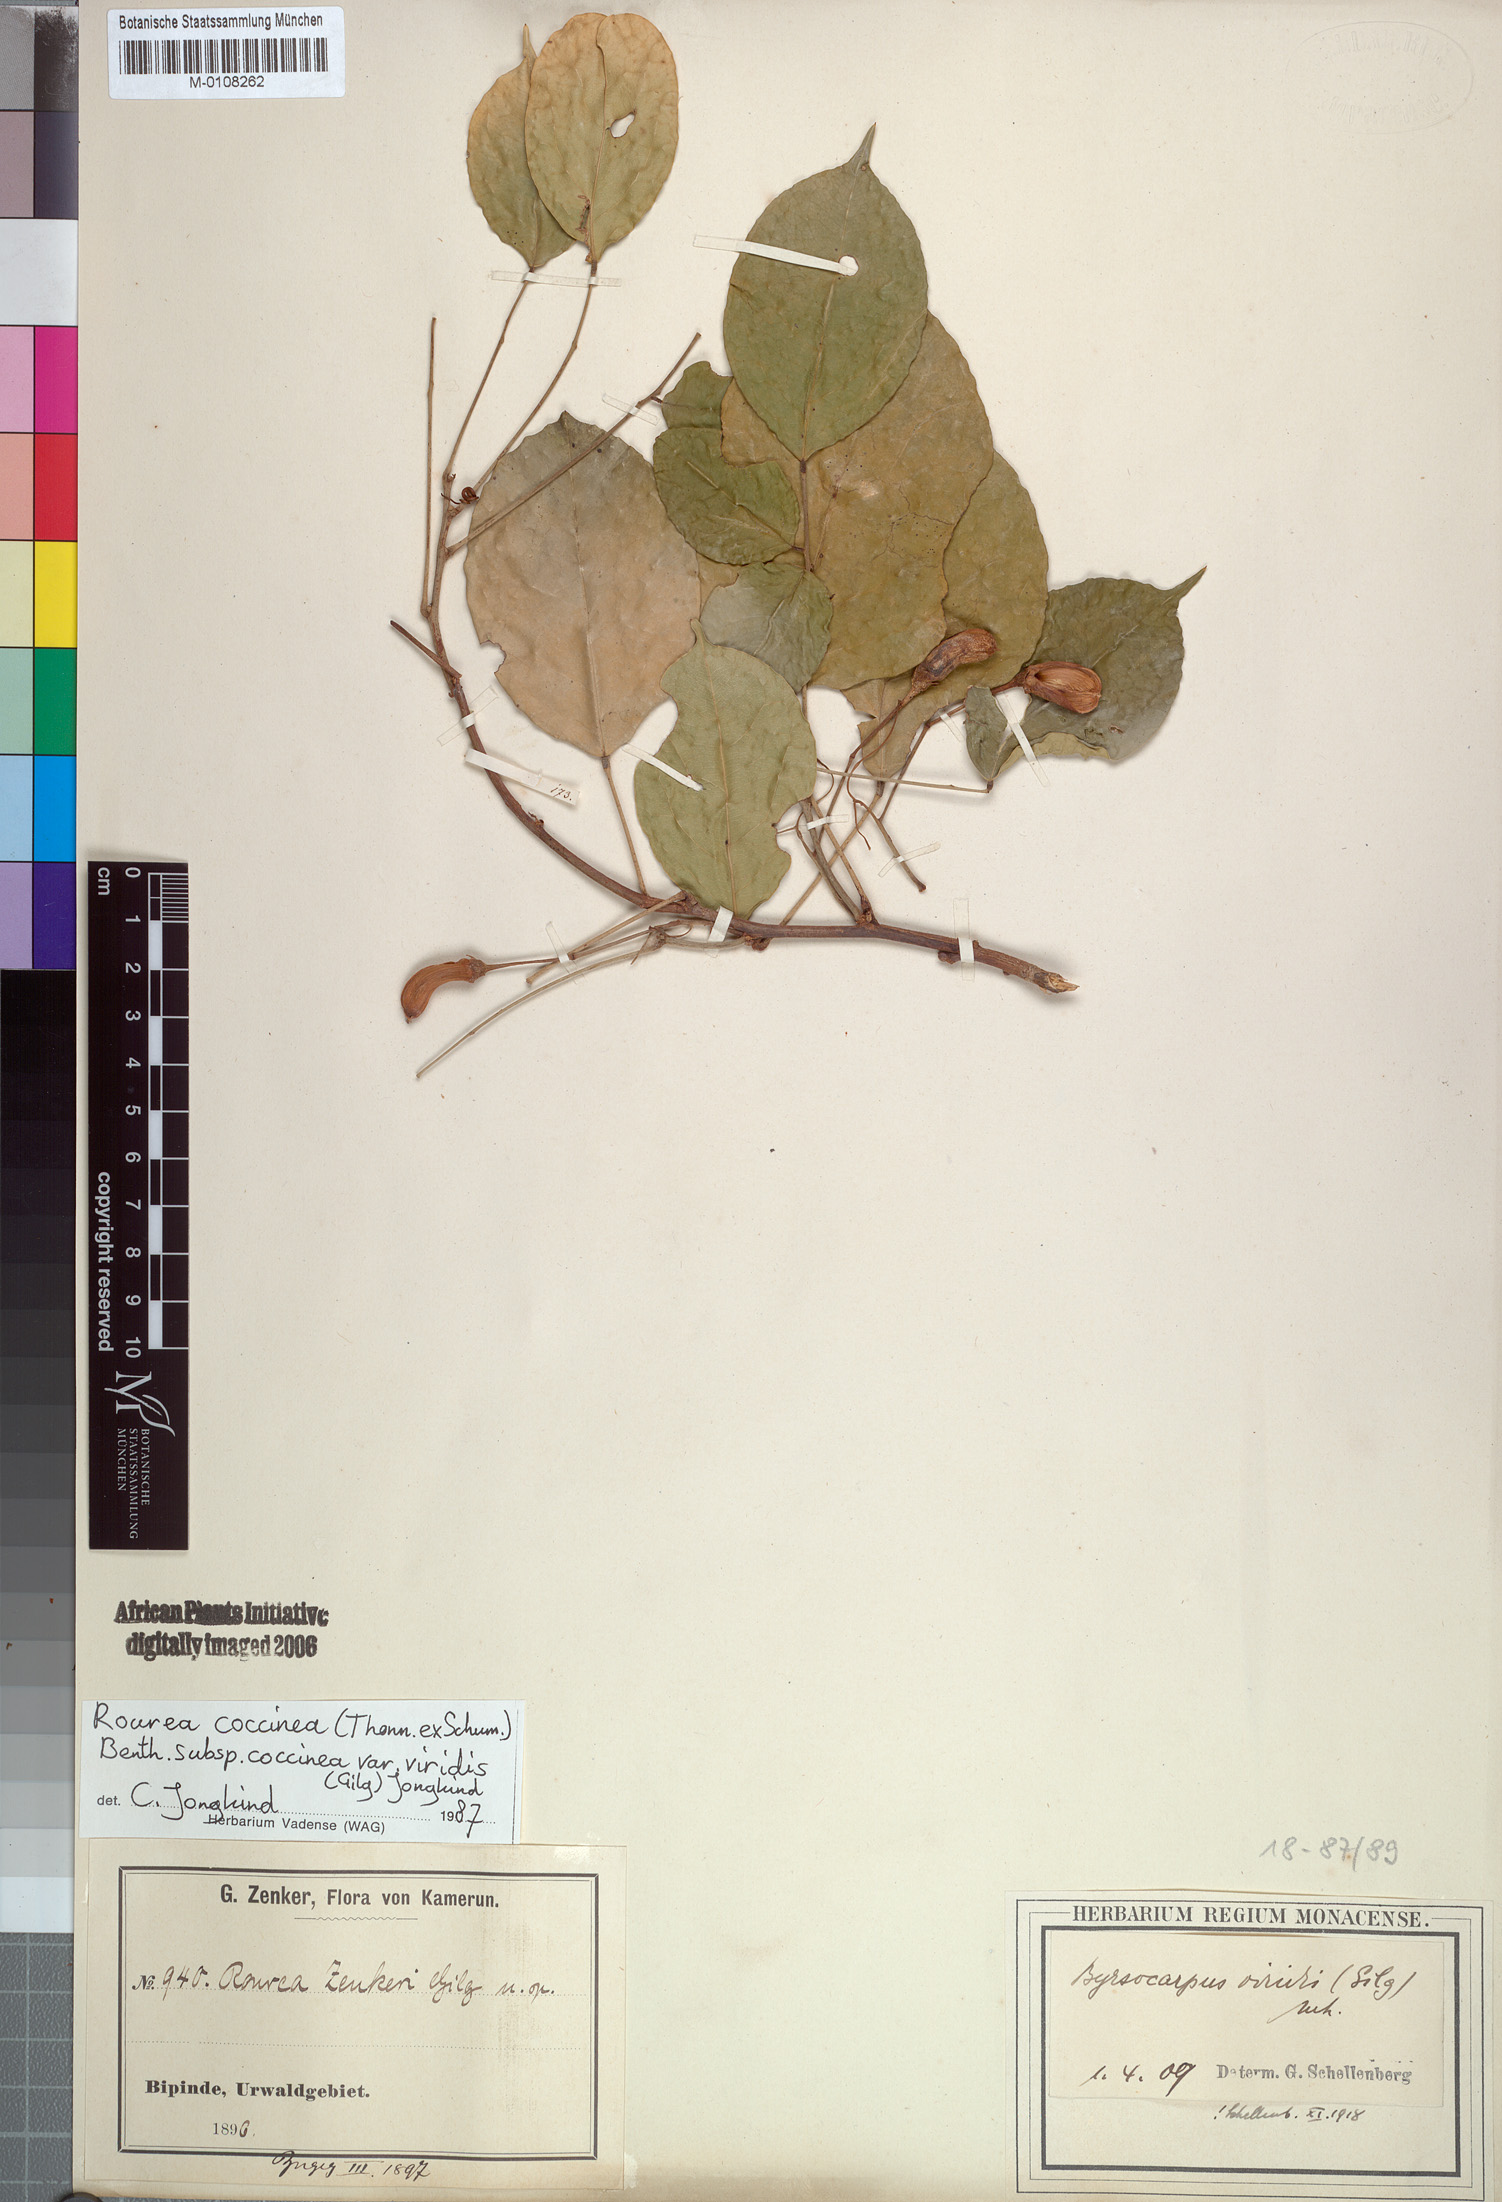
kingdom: Plantae
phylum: Tracheophyta
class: Magnoliopsida
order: Oxalidales
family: Connaraceae
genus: Rourea
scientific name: Rourea coccinea
